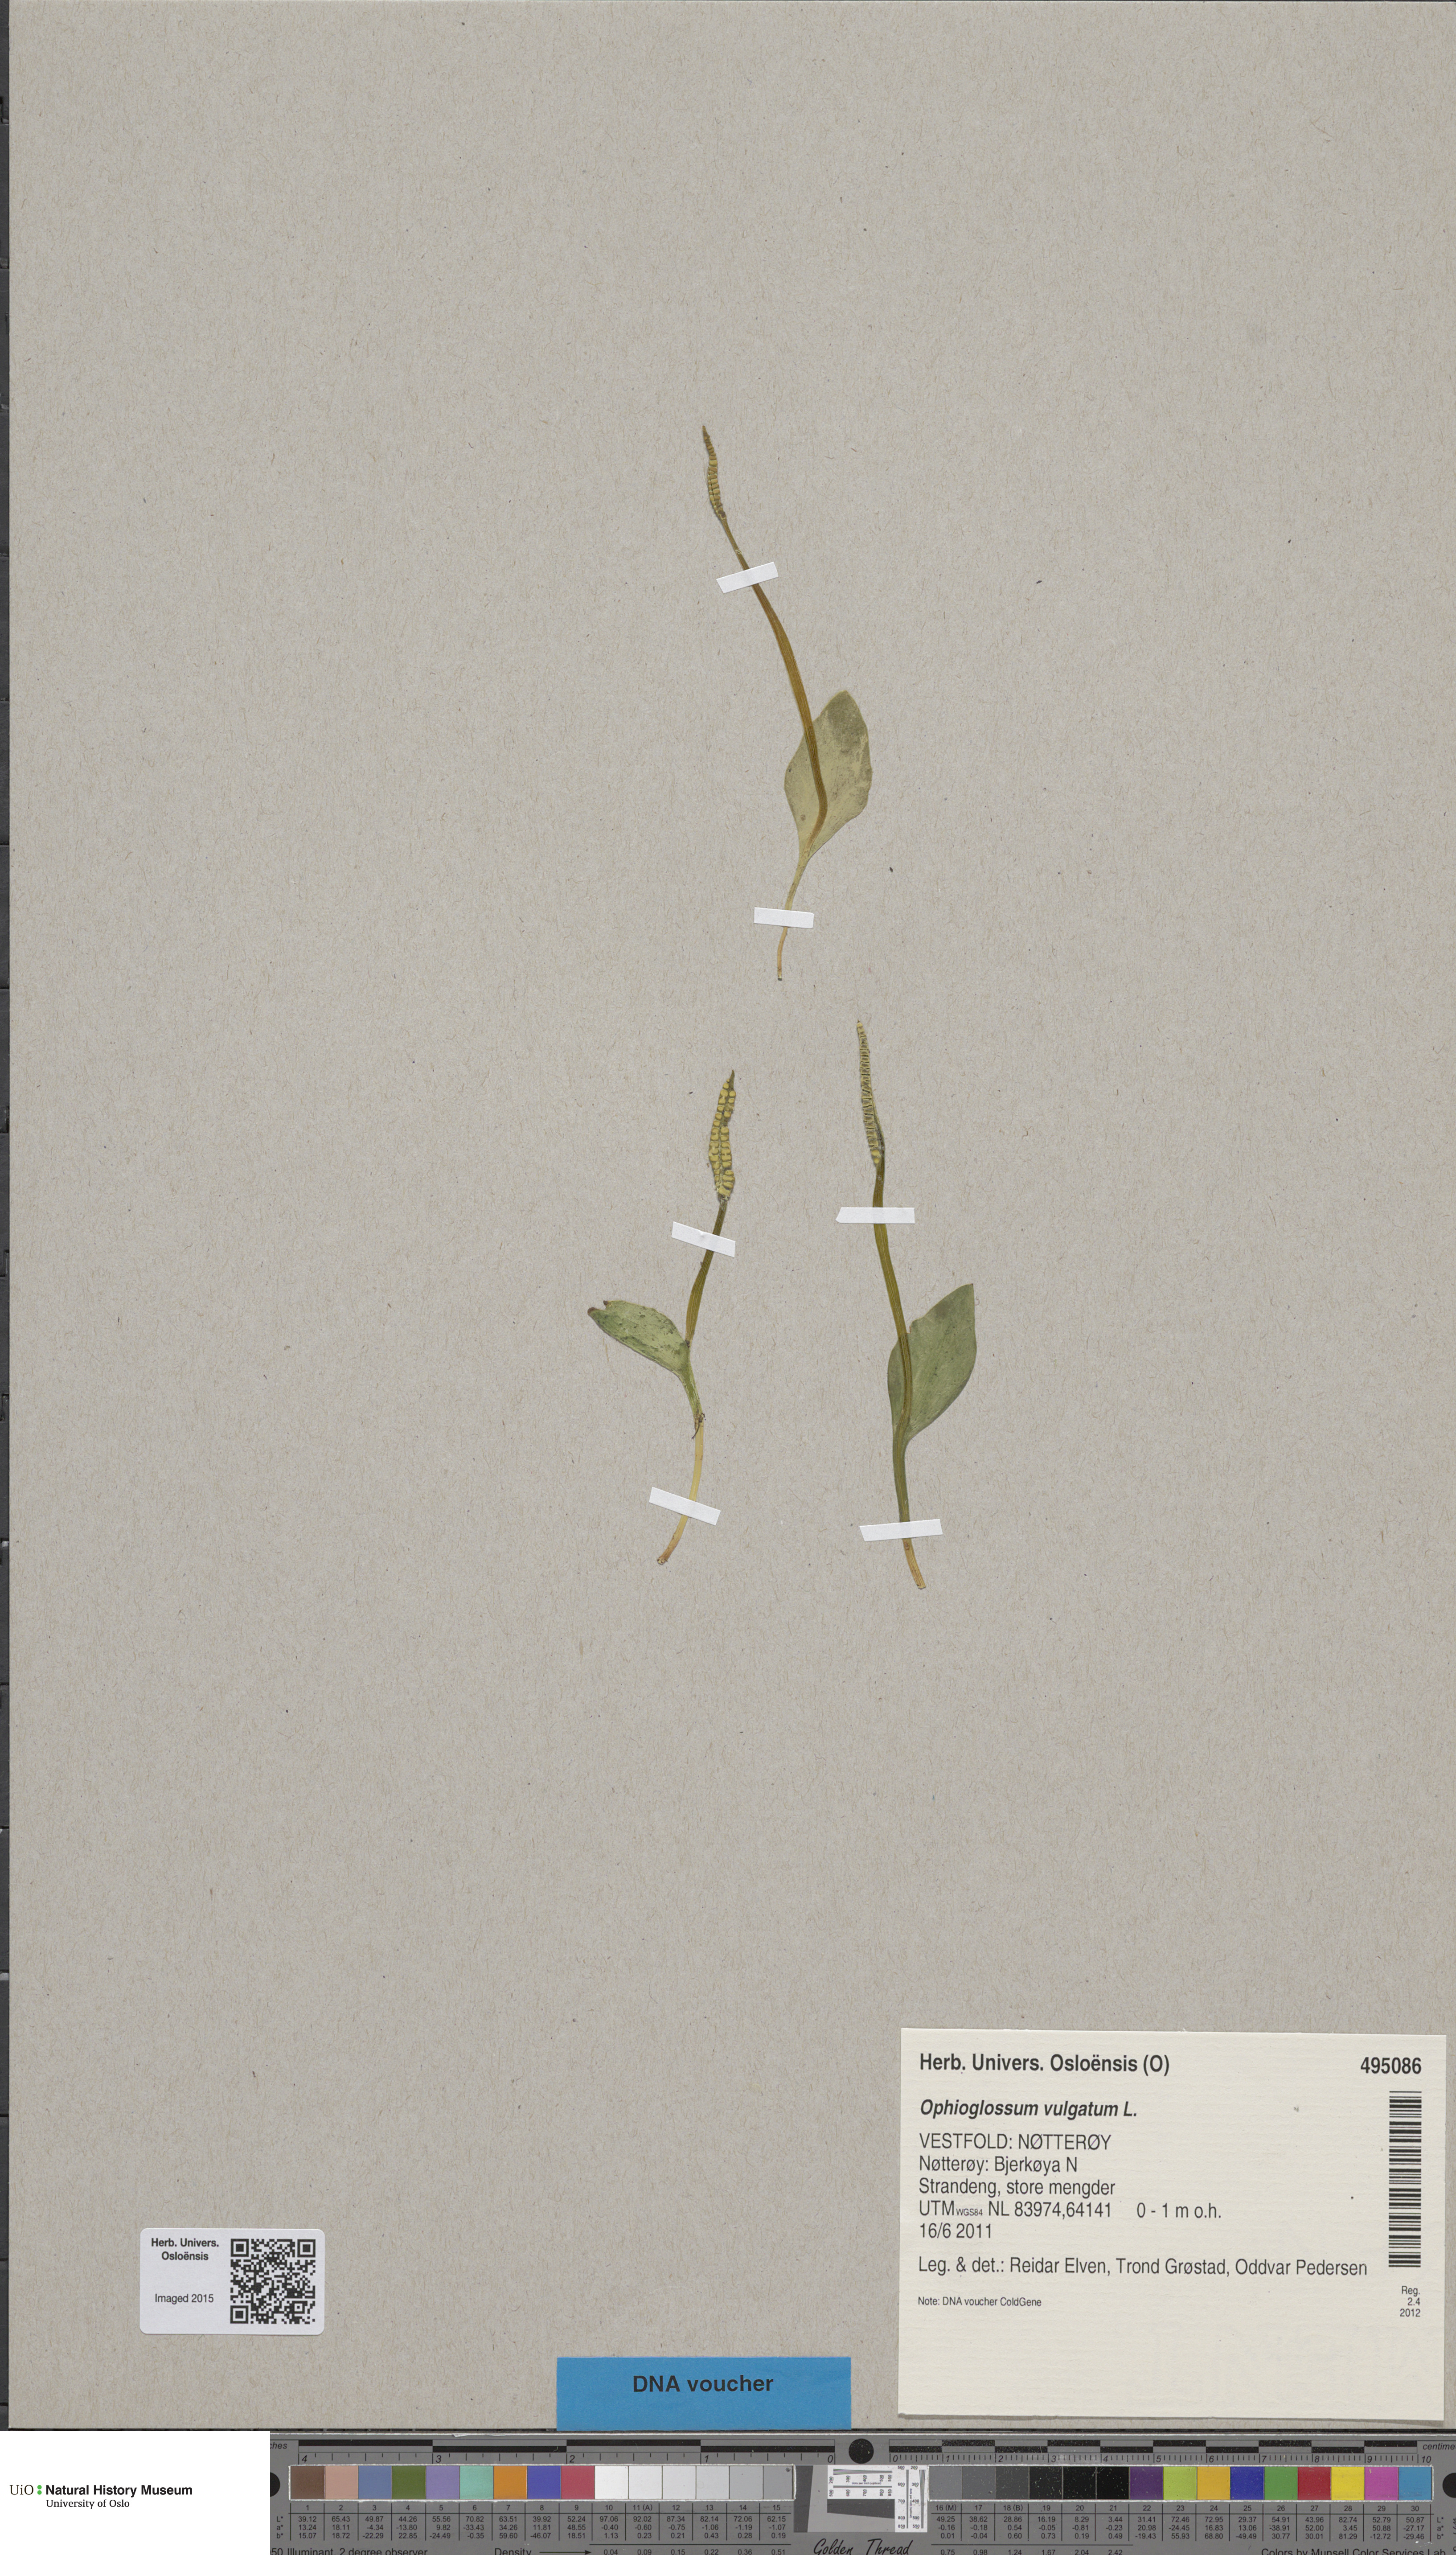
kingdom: Plantae
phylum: Tracheophyta
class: Polypodiopsida
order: Ophioglossales
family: Ophioglossaceae
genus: Ophioglossum
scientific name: Ophioglossum vulgatum
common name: Adder's-tongue
